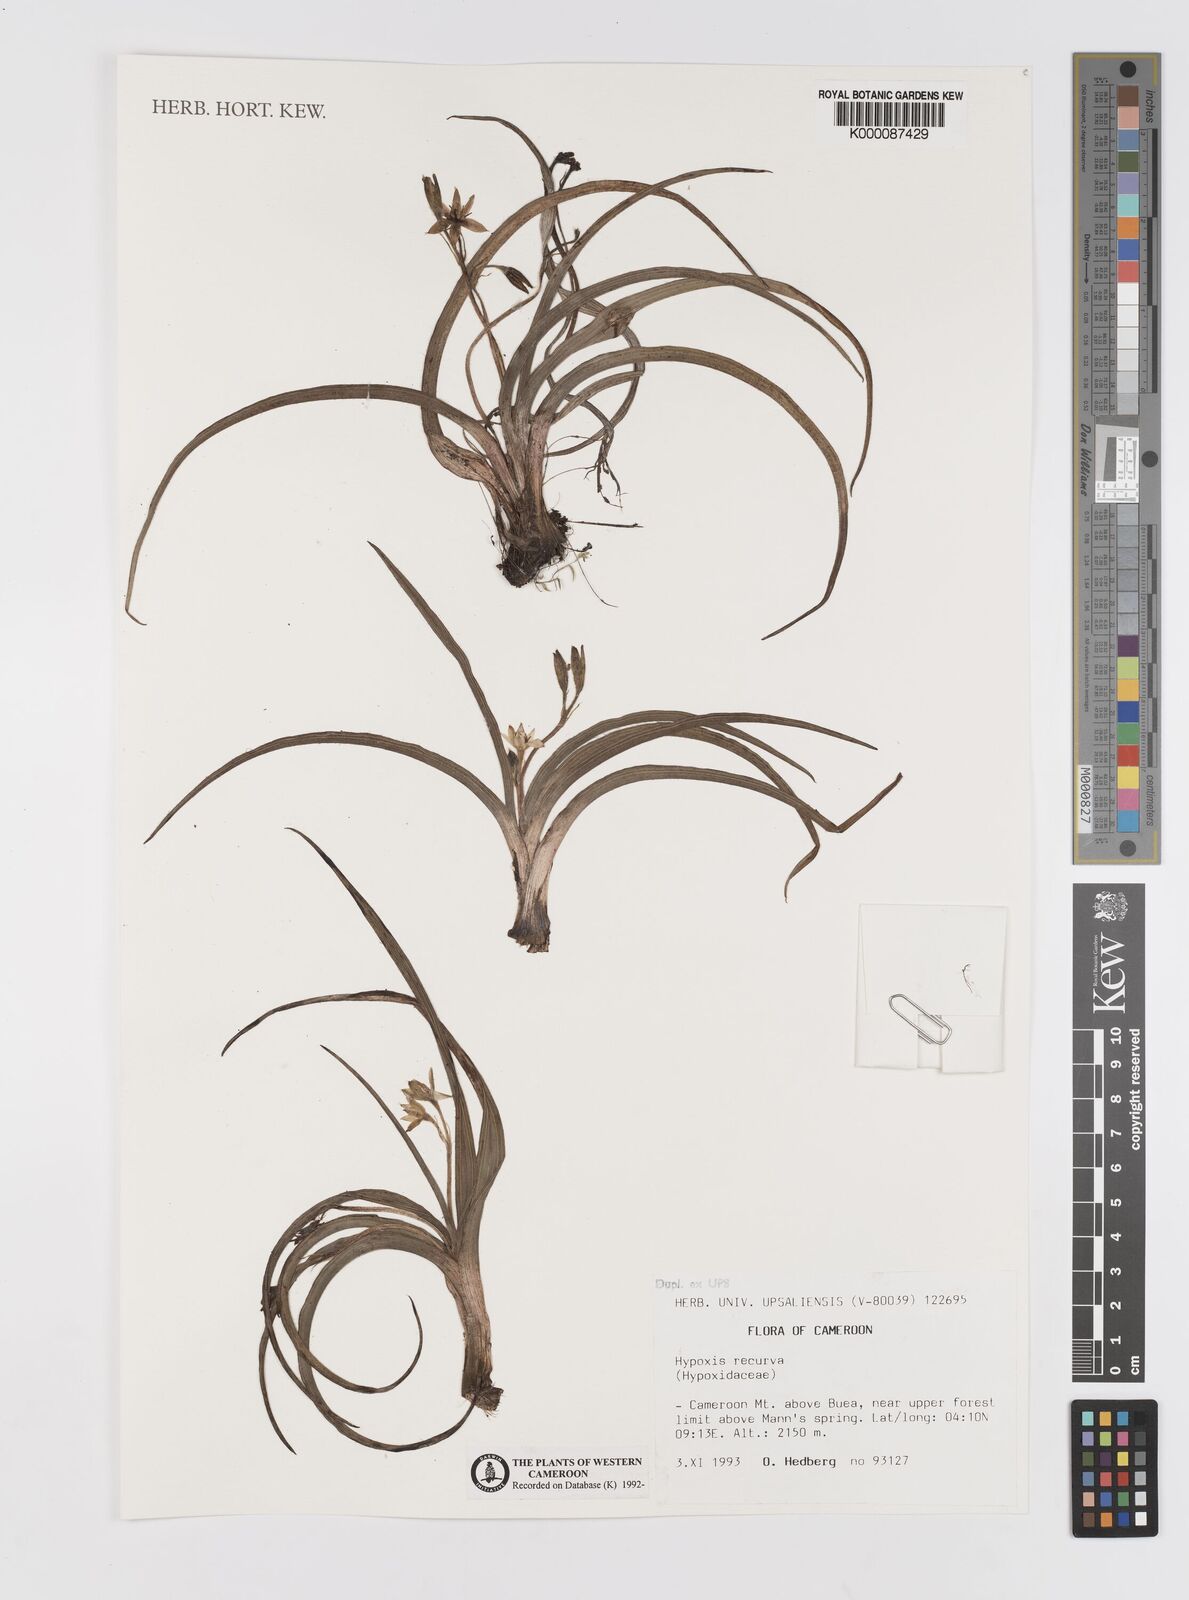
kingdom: Plantae
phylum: Tracheophyta
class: Liliopsida
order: Asparagales
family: Hypoxidaceae
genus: Hypoxis
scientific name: Hypoxis
